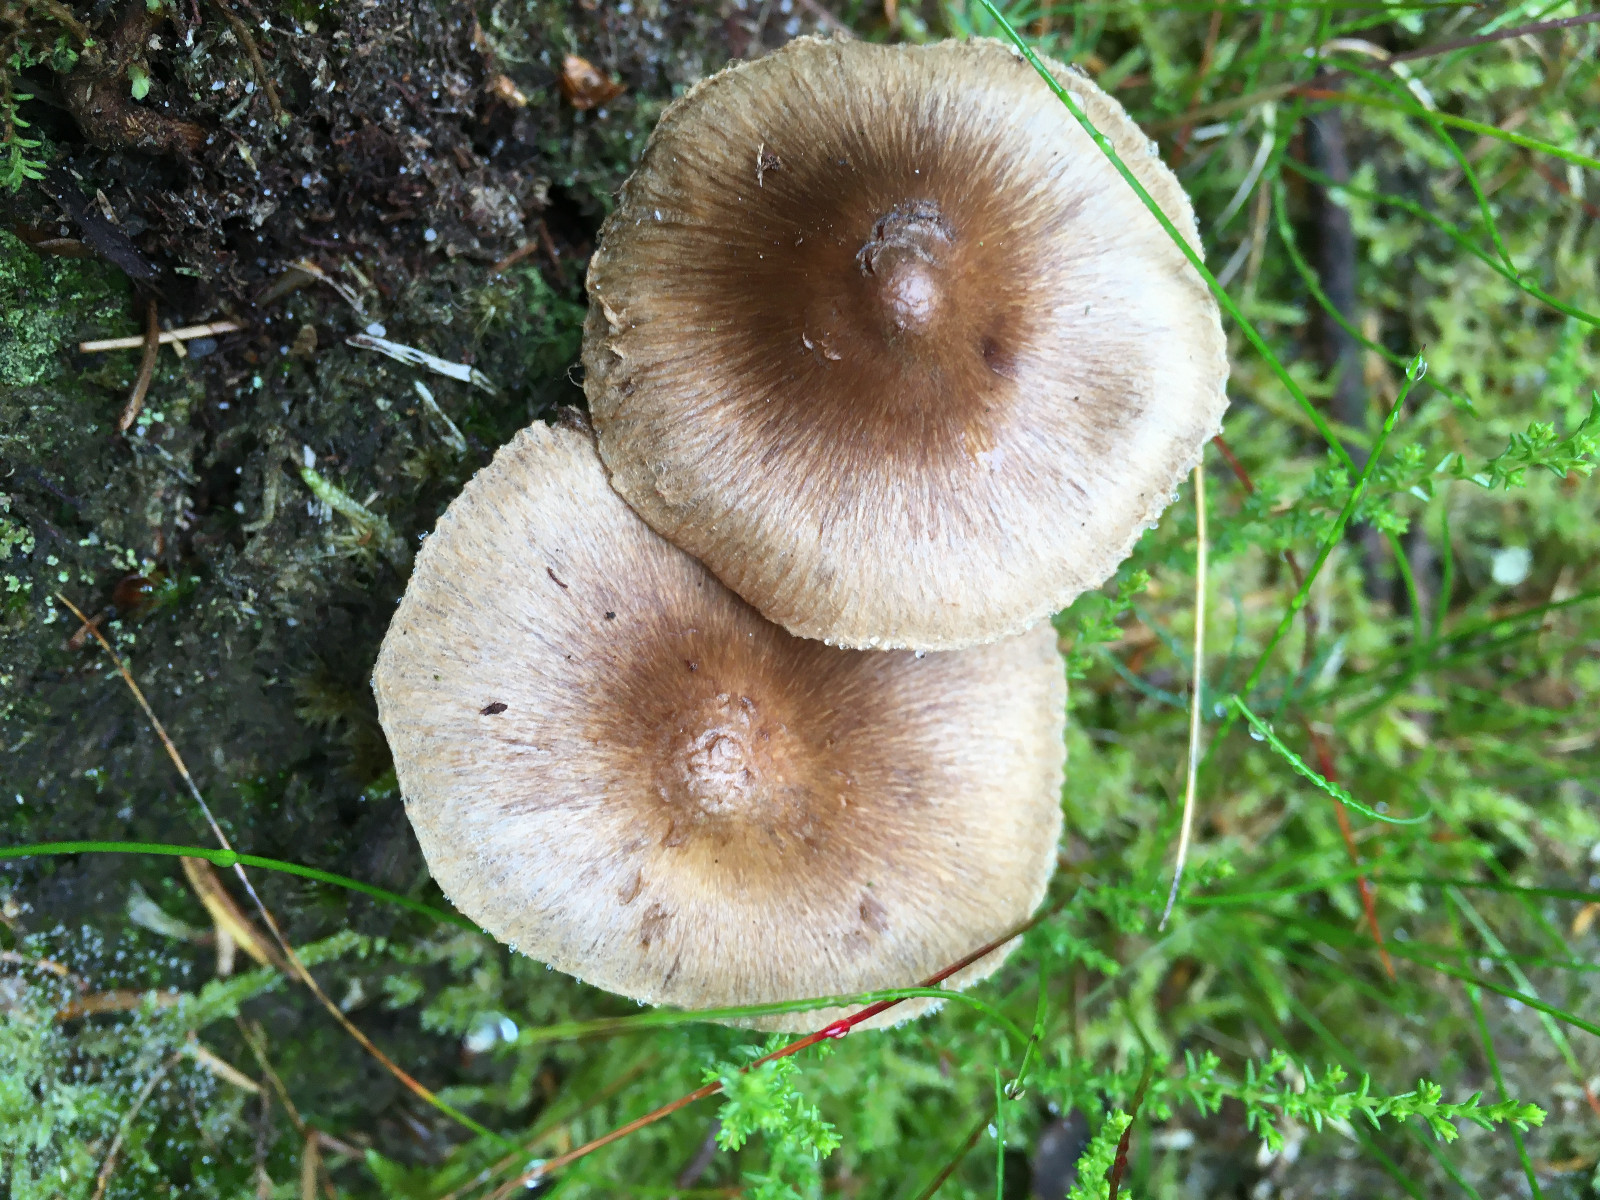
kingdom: Fungi
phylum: Basidiomycota
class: Agaricomycetes
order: Agaricales
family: Inocybaceae
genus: Inocybe
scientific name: Inocybe
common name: trævlhat
